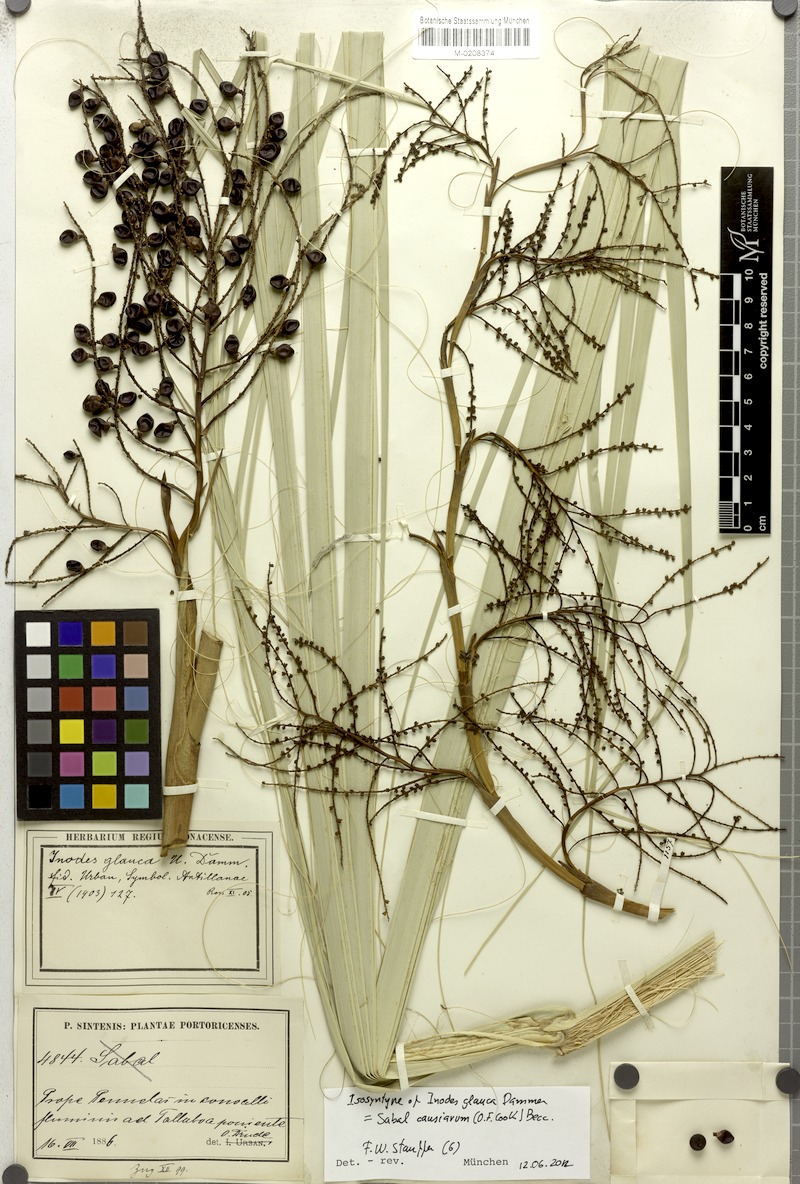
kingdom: Plantae
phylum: Tracheophyta
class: Liliopsida
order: Arecales
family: Arecaceae
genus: Sabal
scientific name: Sabal causiarum
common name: Puerto rican hat palm
